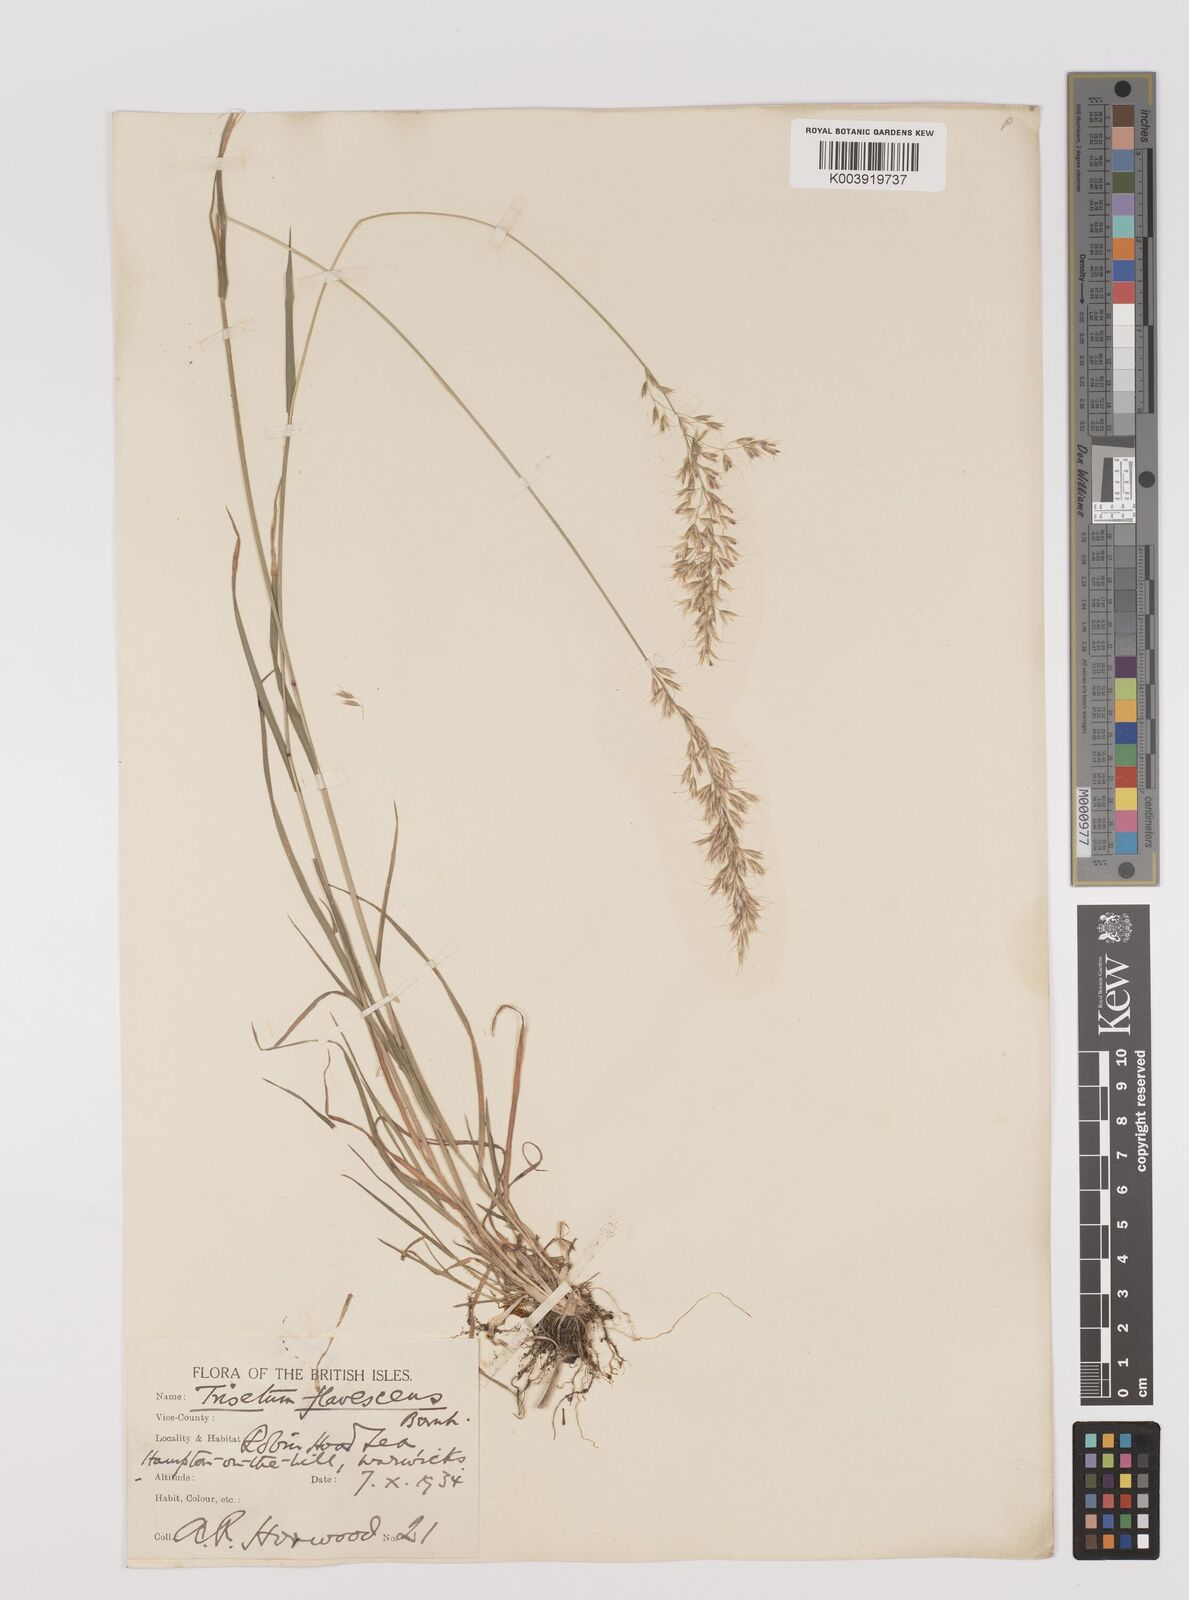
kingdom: Plantae
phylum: Tracheophyta
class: Liliopsida
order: Poales
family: Poaceae
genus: Trisetum
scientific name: Trisetum flavescens
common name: Yellow oat-grass
